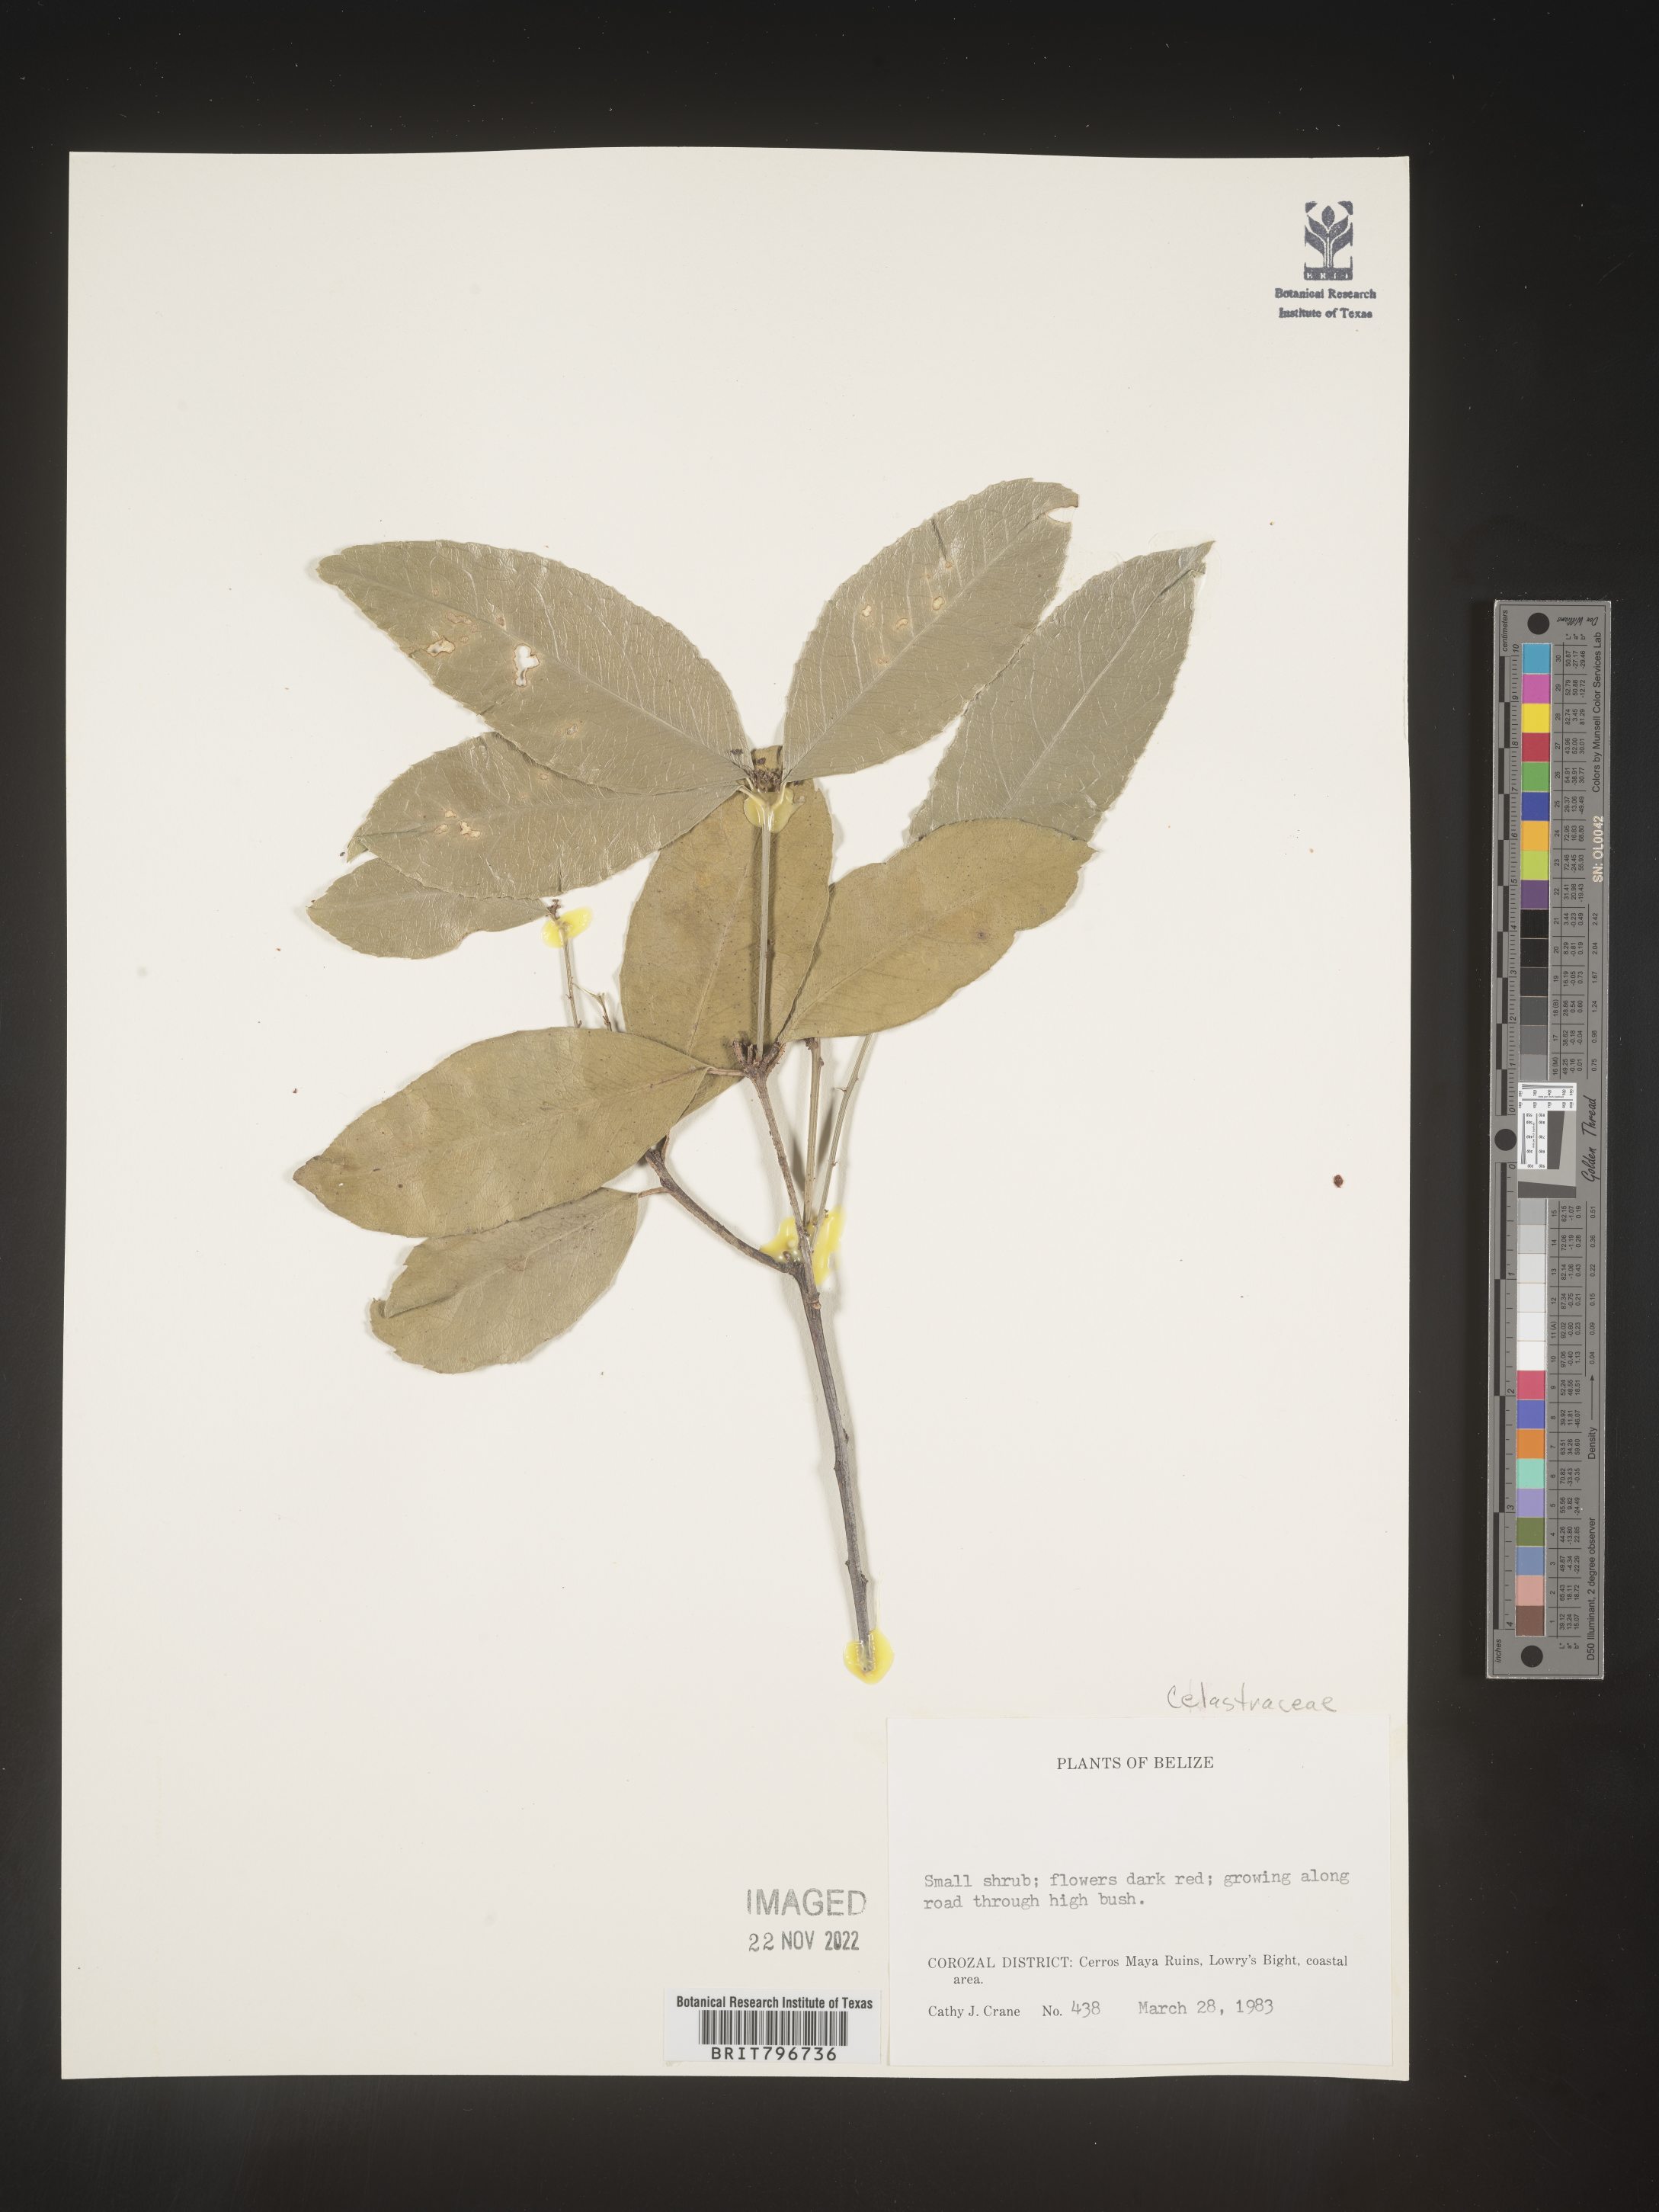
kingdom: Plantae
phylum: Tracheophyta
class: Magnoliopsida
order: Celastrales
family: Celastraceae
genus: Zinowiewia
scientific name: Zinowiewia
